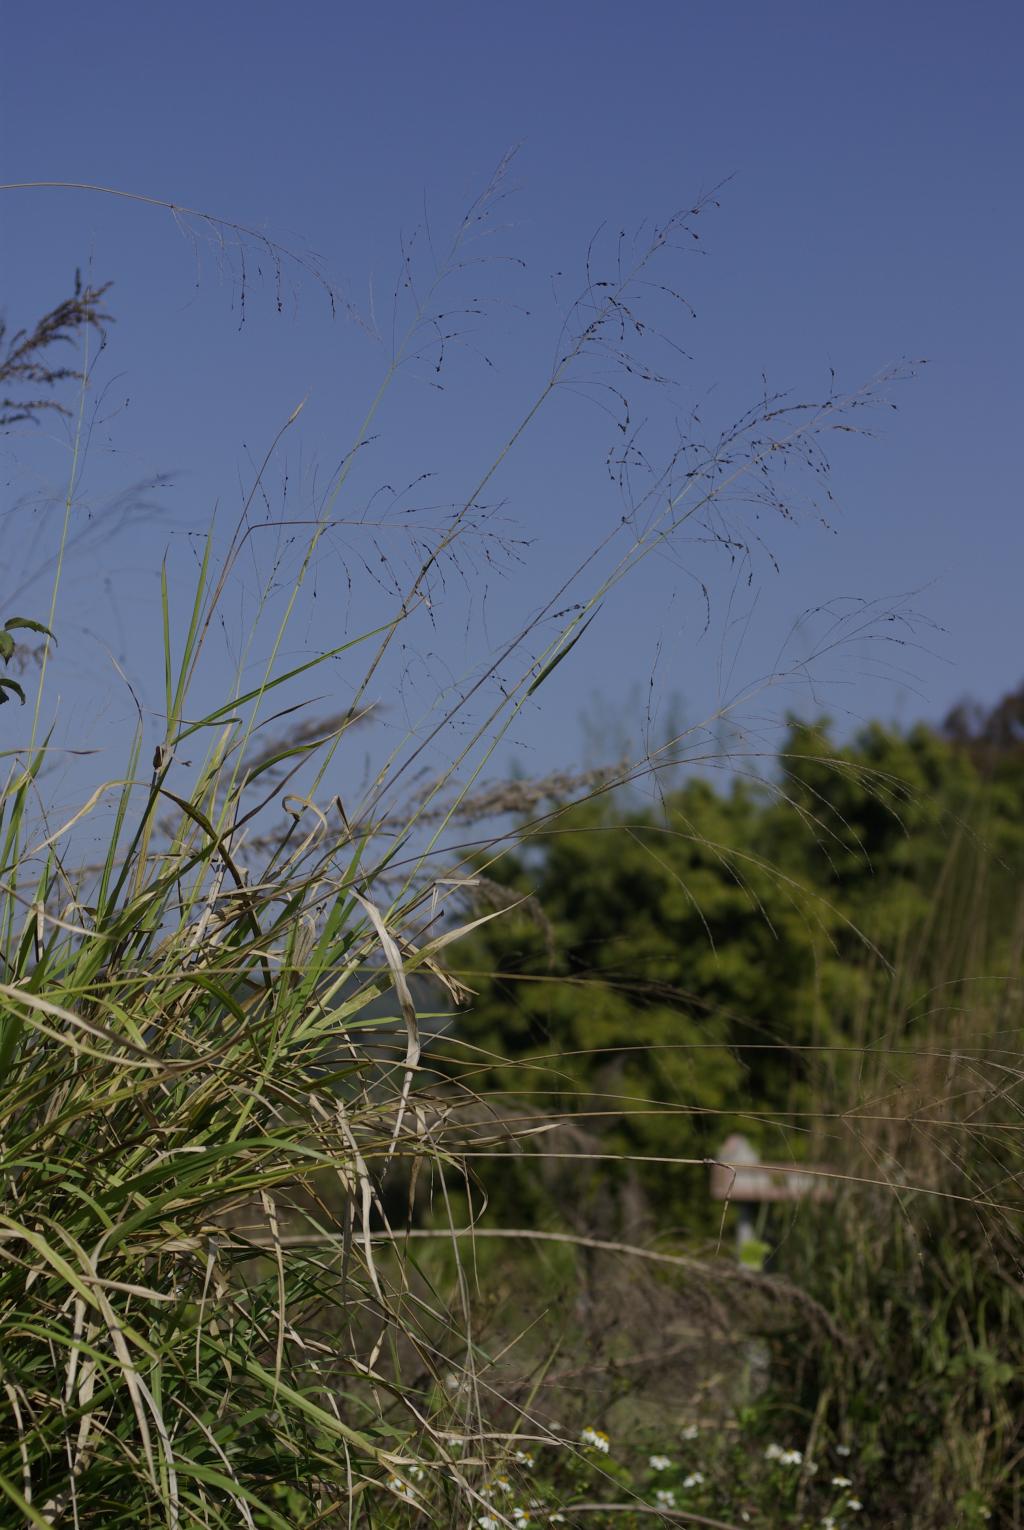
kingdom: Plantae
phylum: Tracheophyta
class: Liliopsida
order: Poales
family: Poaceae
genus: Megathyrsus
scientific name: Megathyrsus maximus
